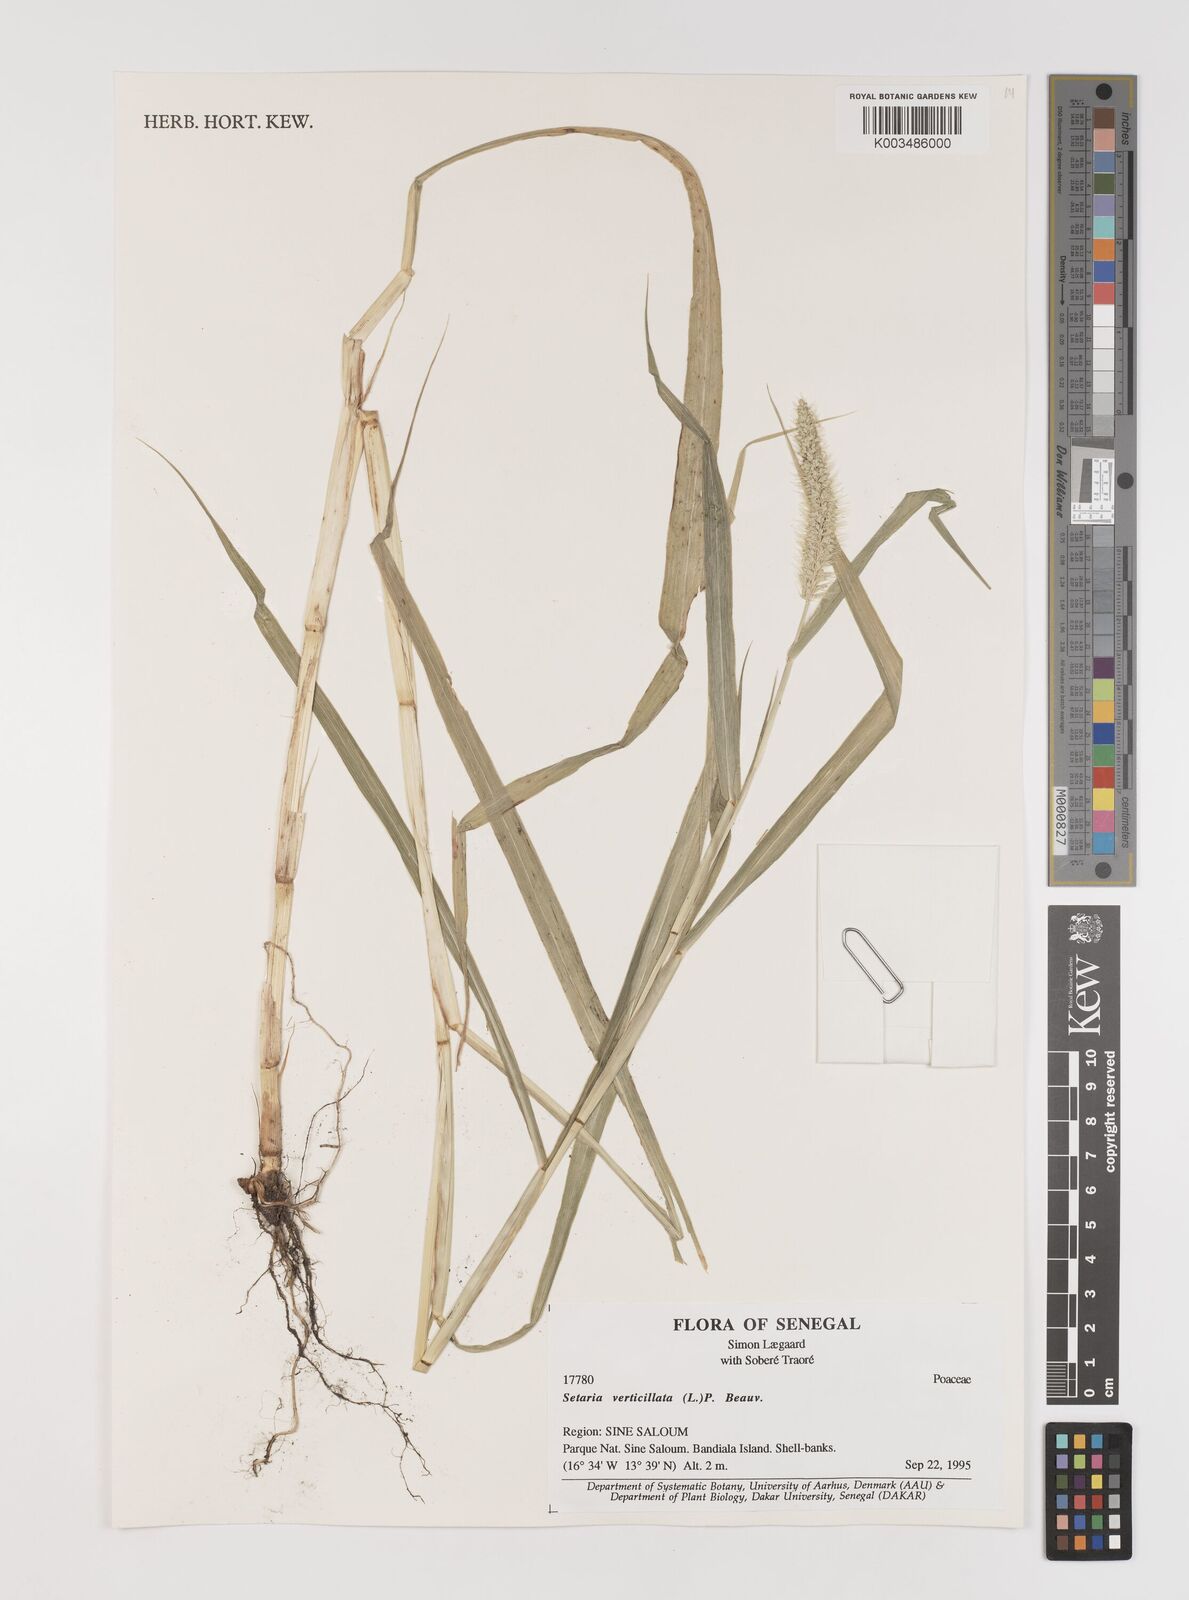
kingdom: Plantae
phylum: Tracheophyta
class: Liliopsida
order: Poales
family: Poaceae
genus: Setaria
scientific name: Setaria verticillata
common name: Hooked bristlegrass
